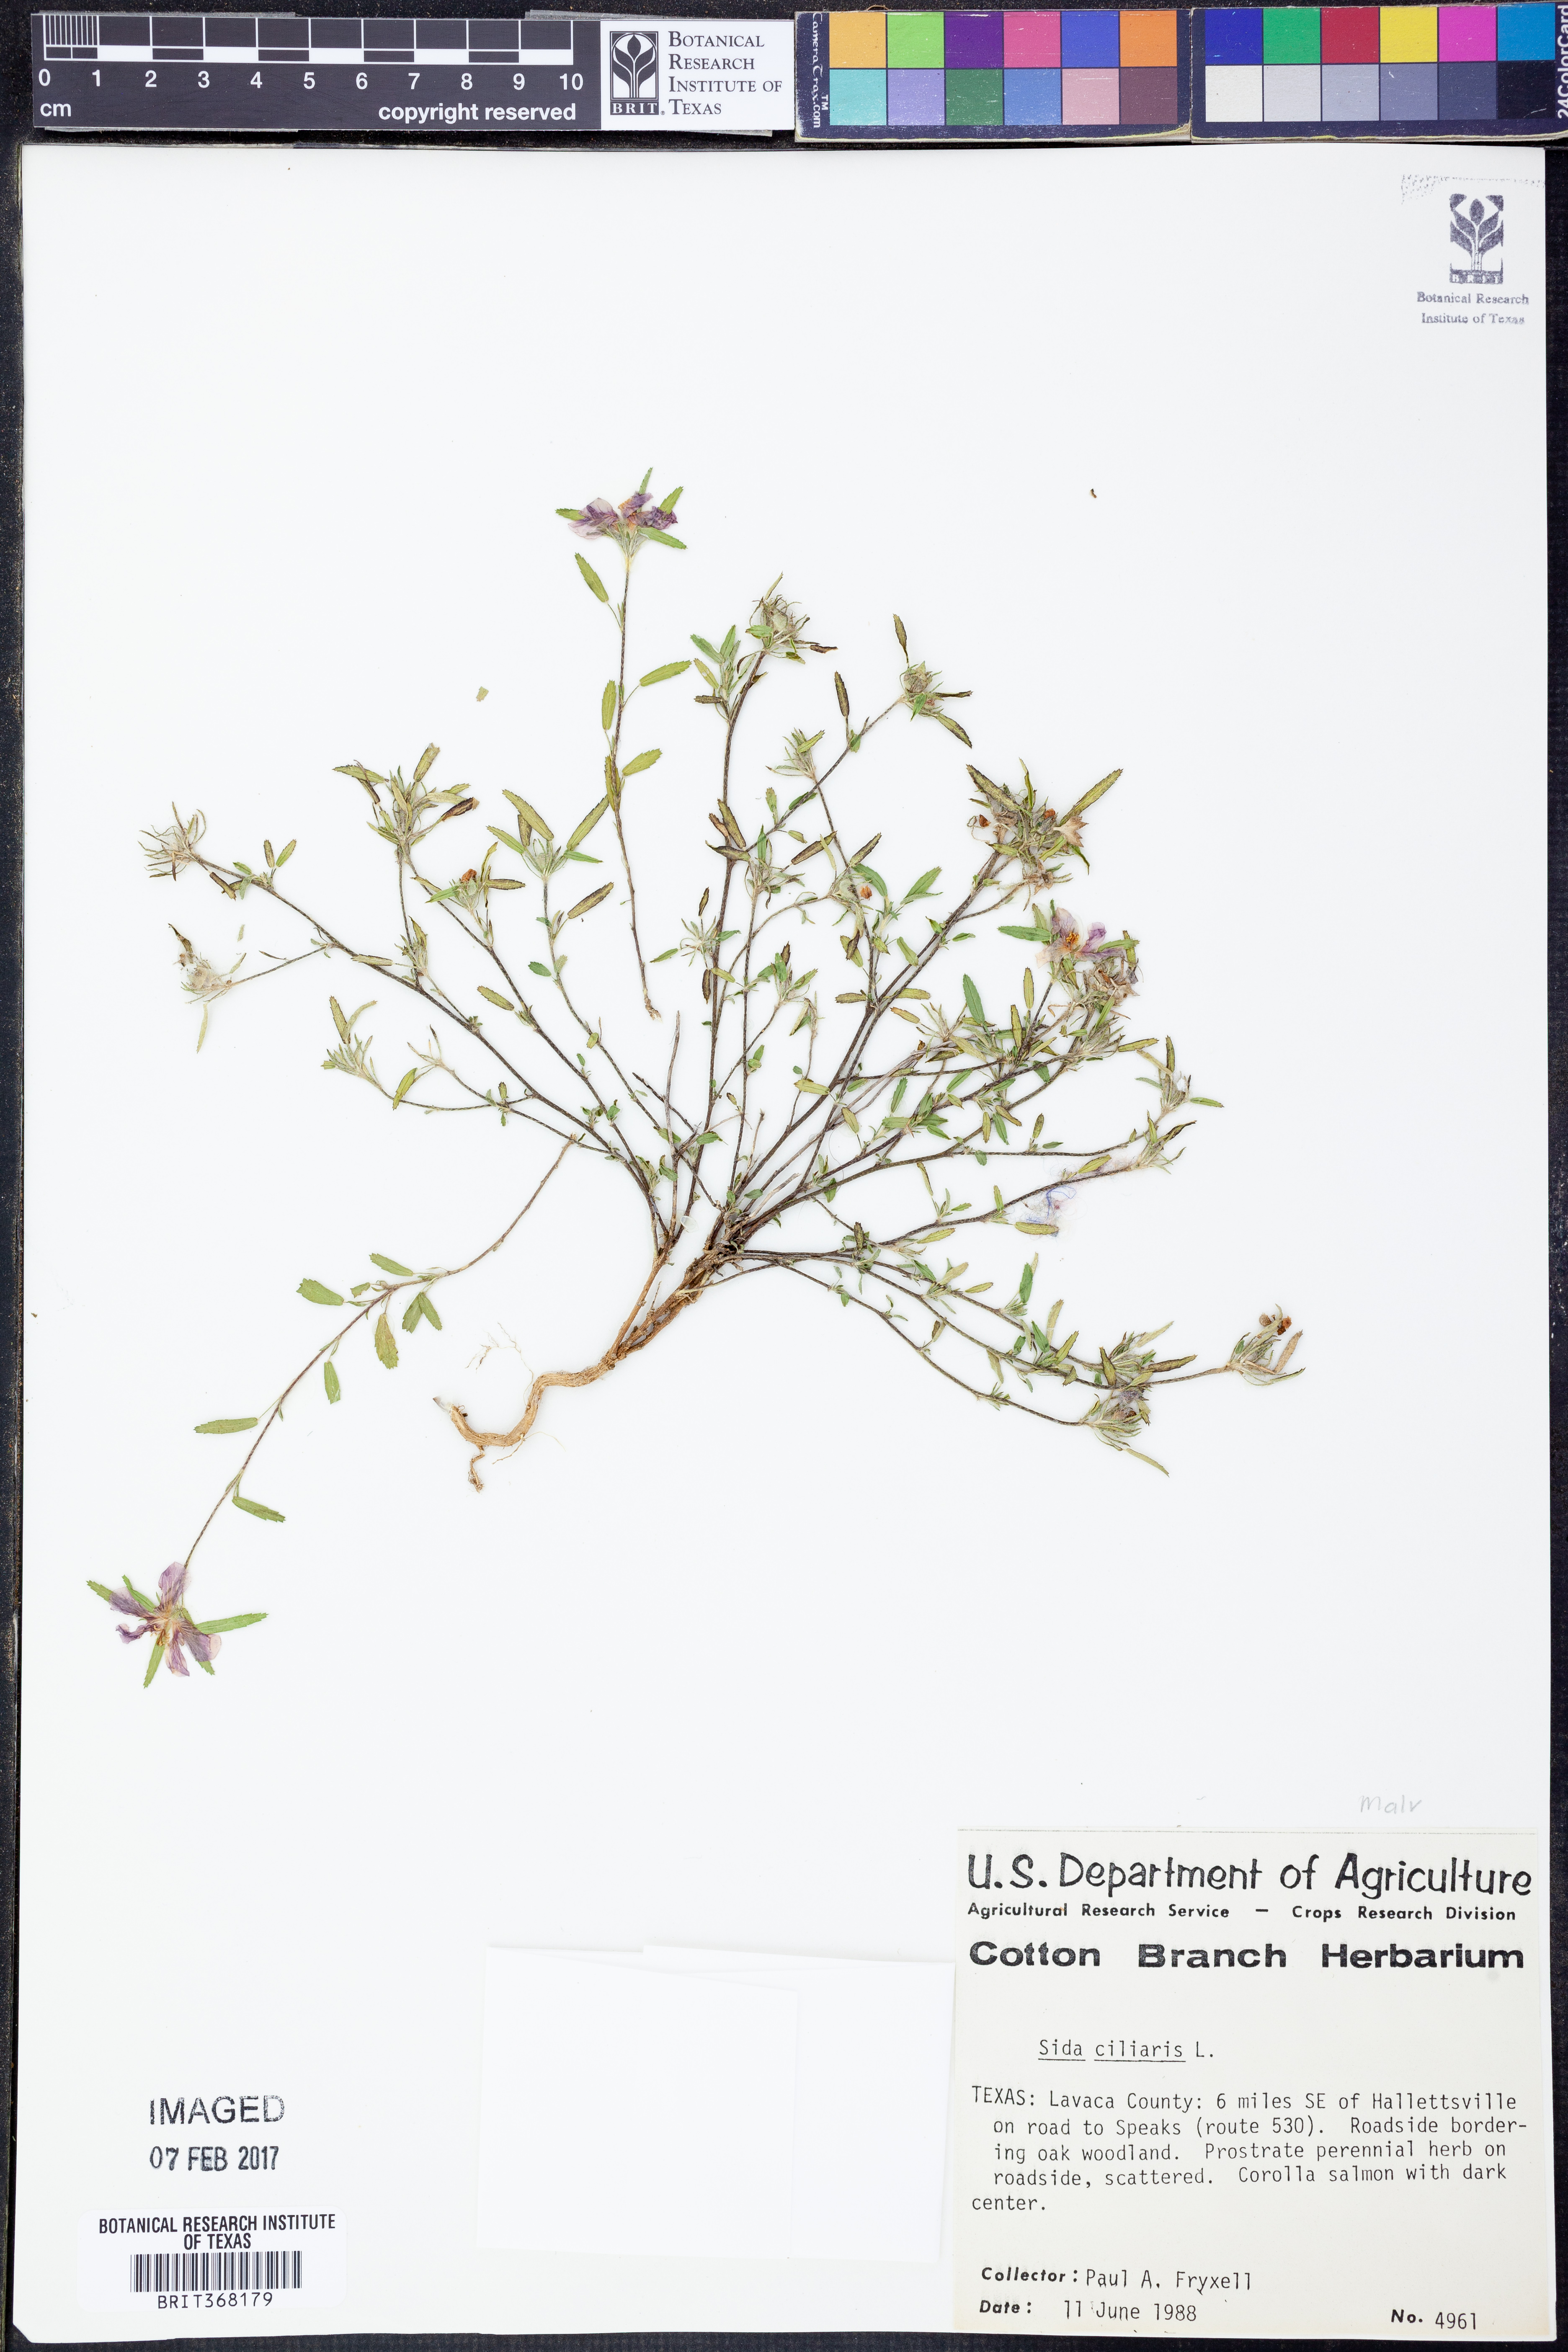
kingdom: Plantae
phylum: Tracheophyta
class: Magnoliopsida
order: Malvales
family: Malvaceae
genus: Sida
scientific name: Sida ciliaris
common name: Bracted fanpetals
